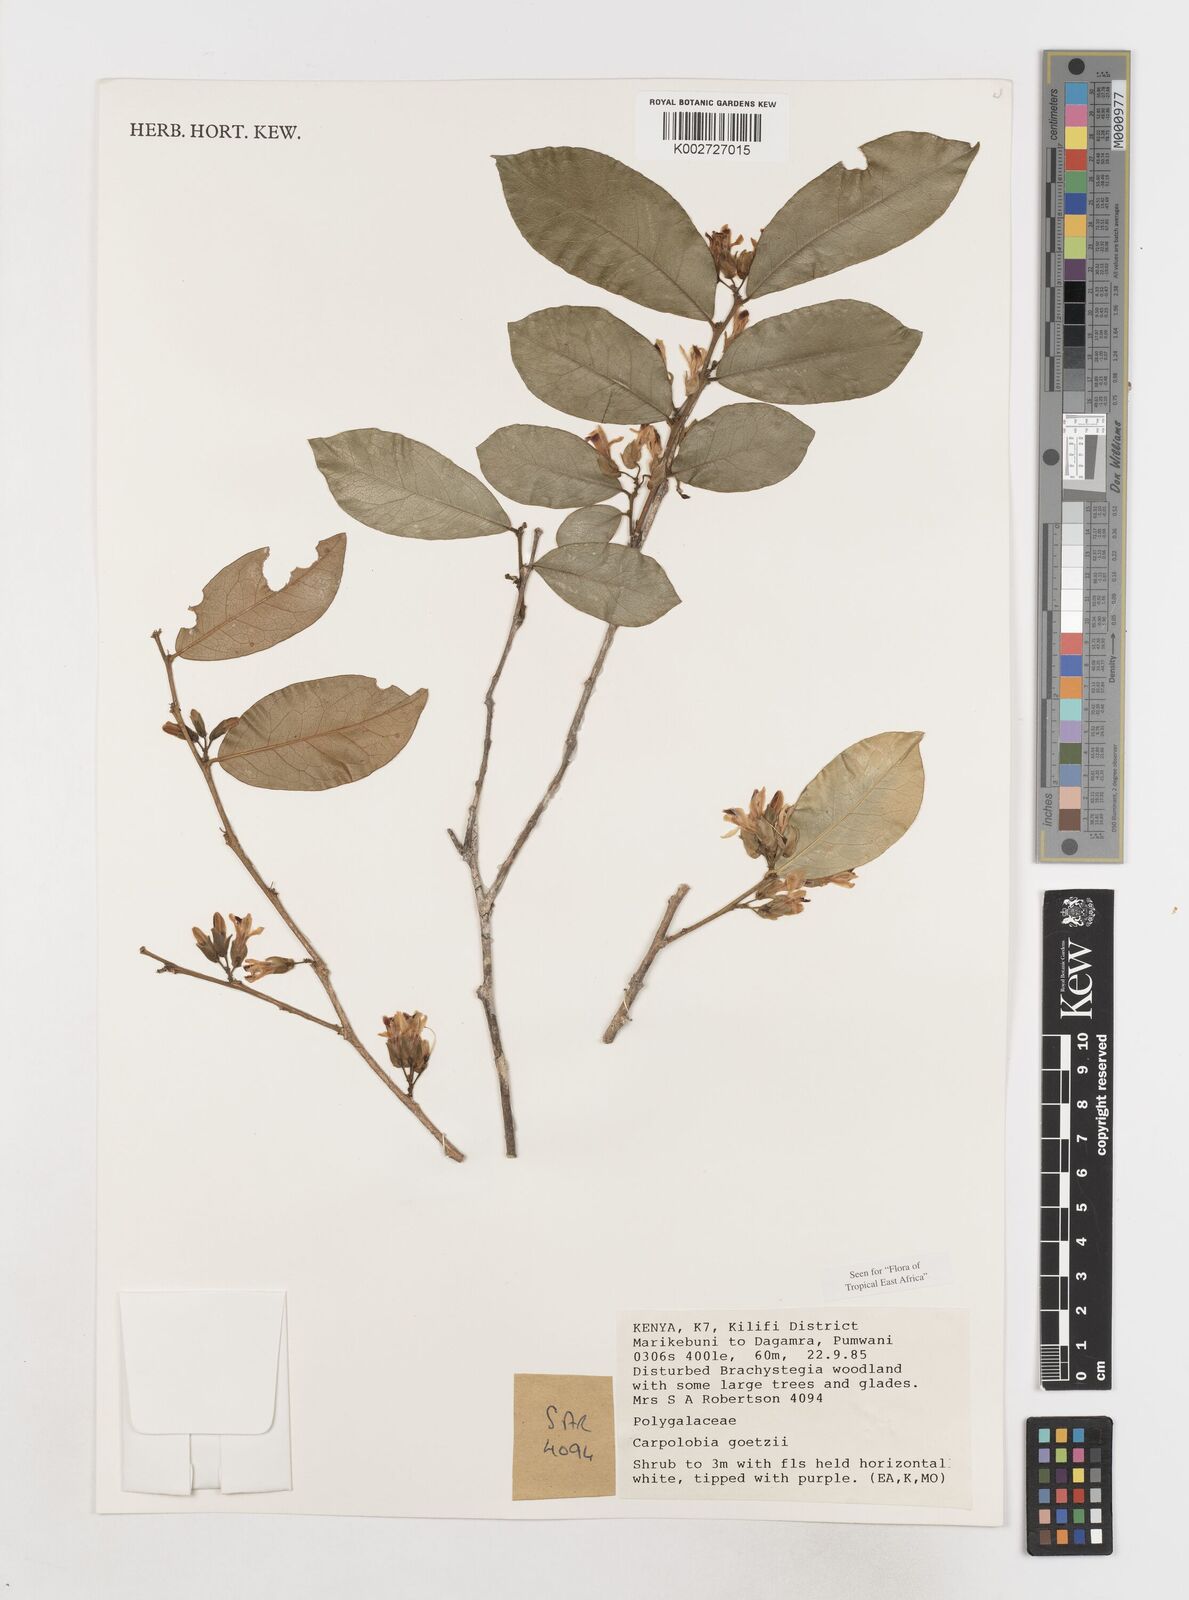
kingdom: Plantae
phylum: Tracheophyta
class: Magnoliopsida
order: Fabales
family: Polygalaceae
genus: Carpolobia
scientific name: Carpolobia goetzei
